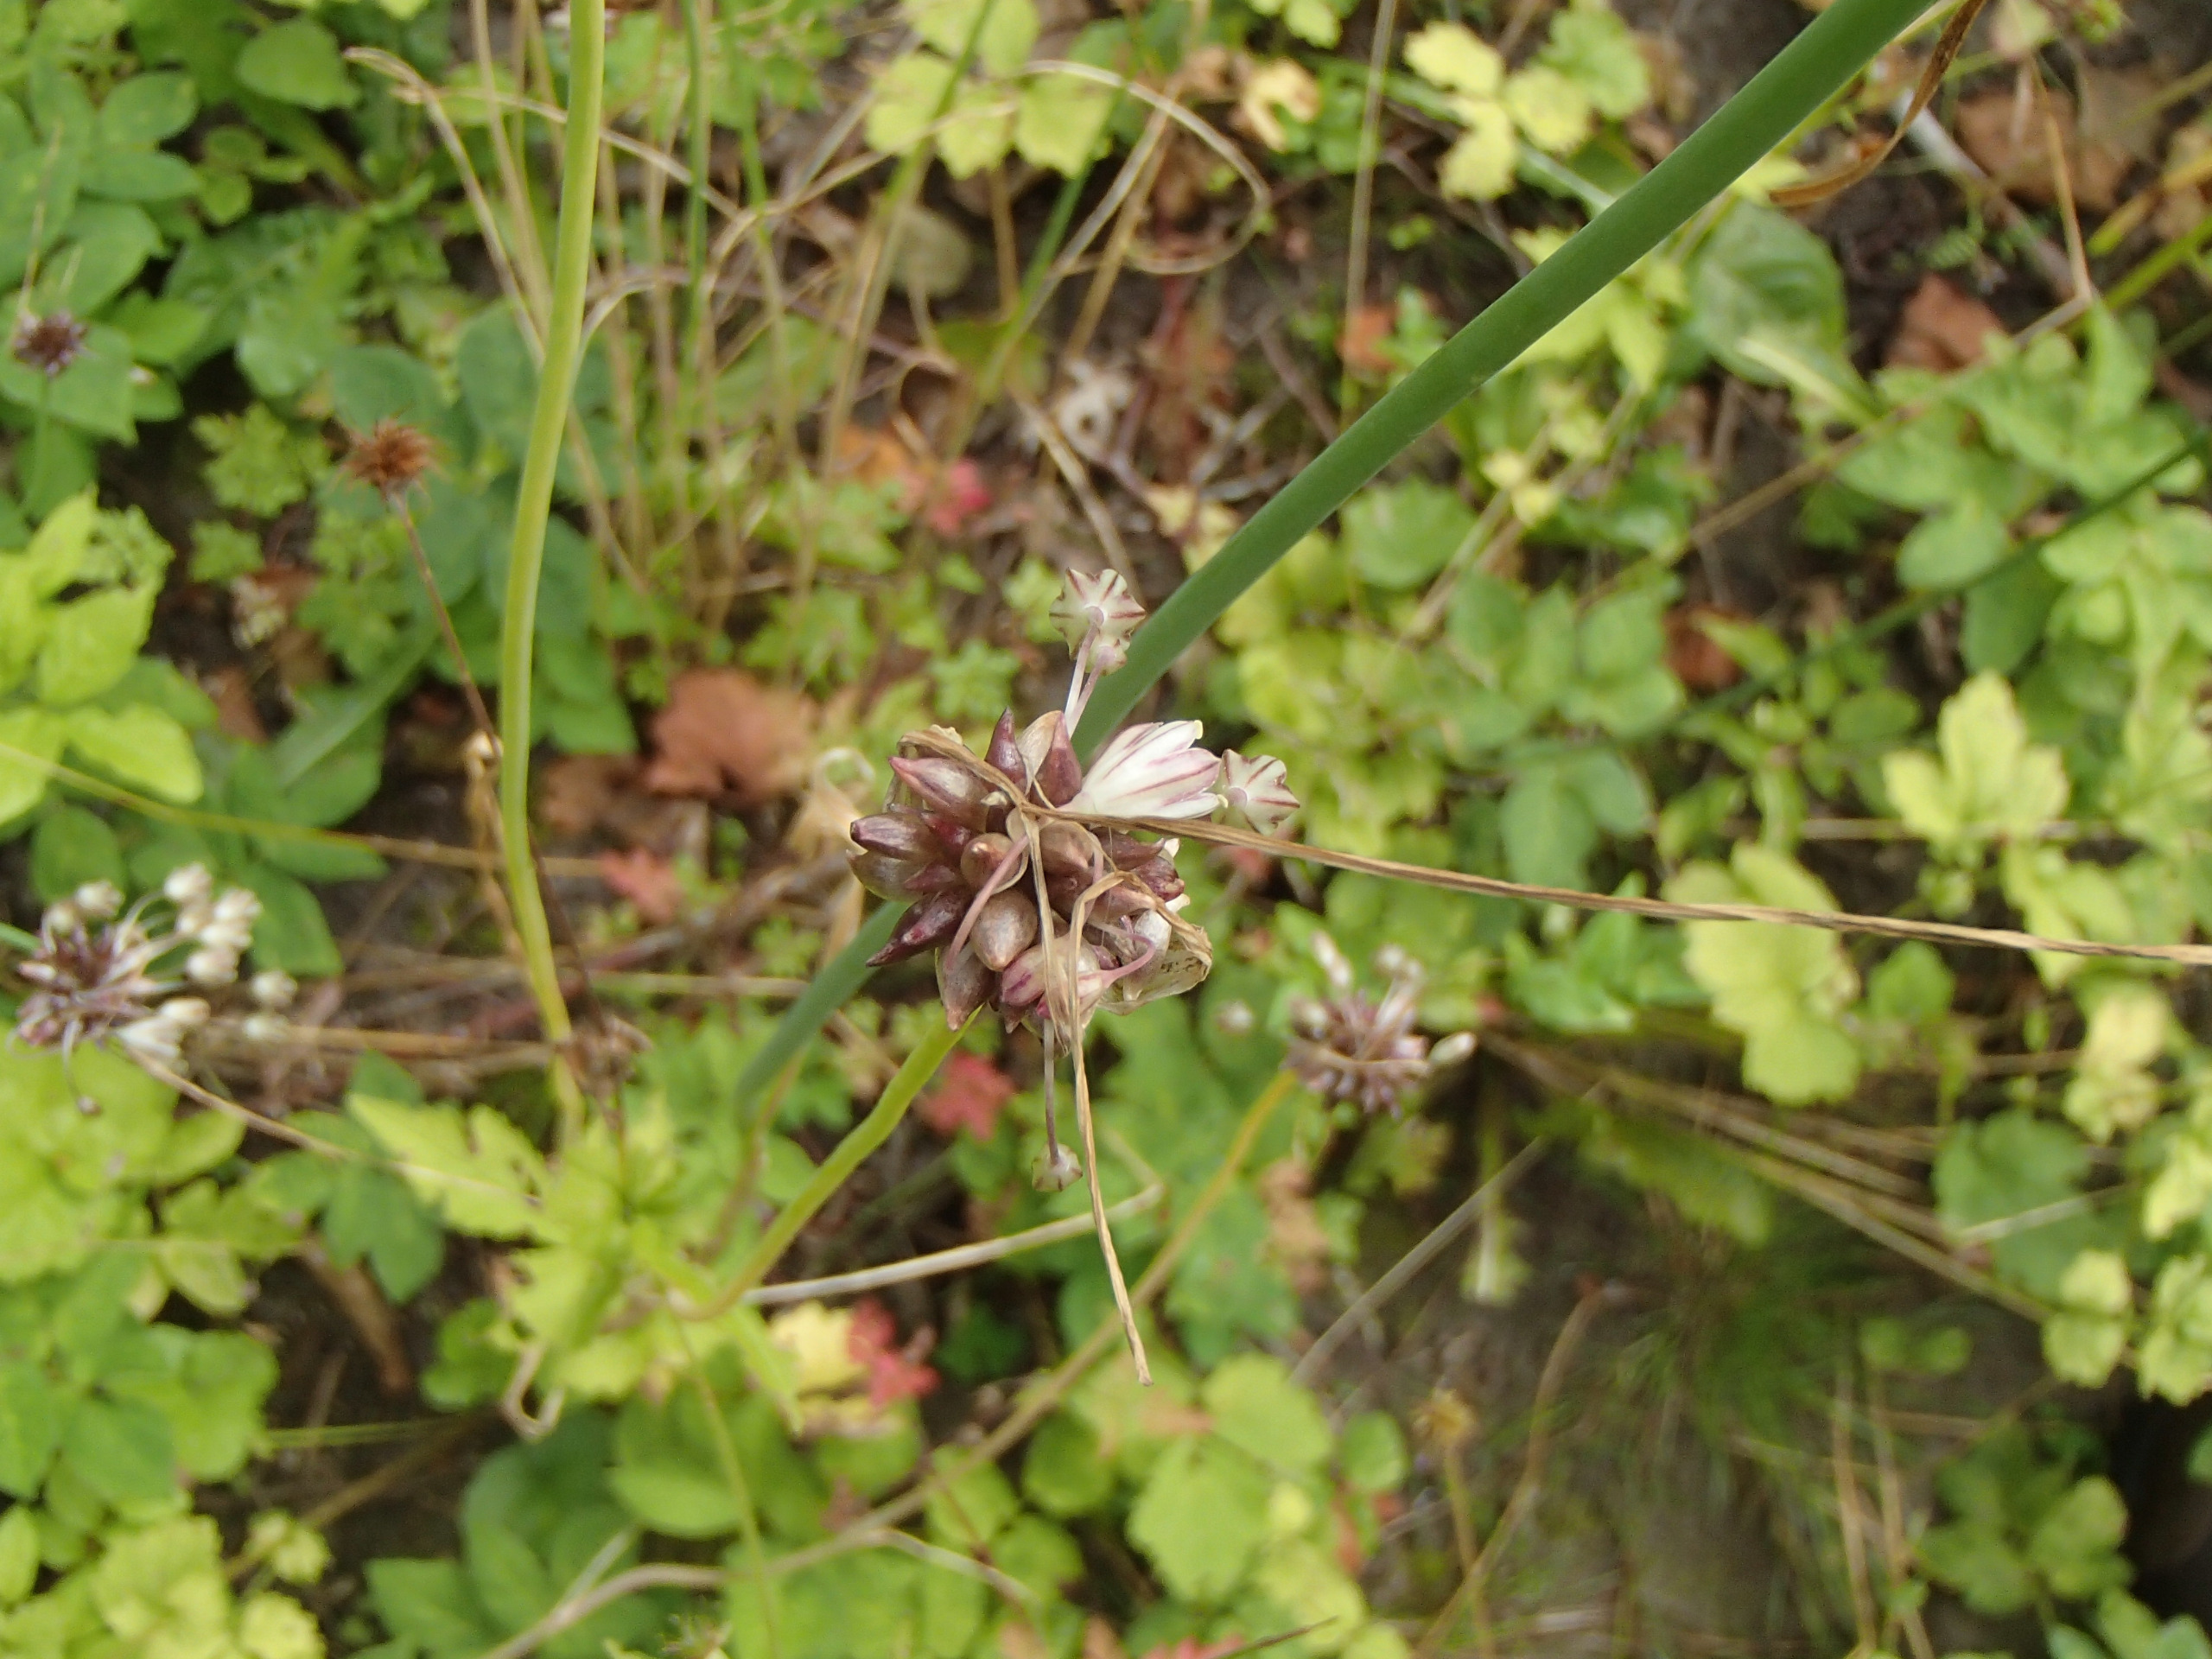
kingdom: Plantae
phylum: Tracheophyta
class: Liliopsida
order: Asparagales
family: Amaryllidaceae
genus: Allium
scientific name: Allium oleraceum
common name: Vild løg
